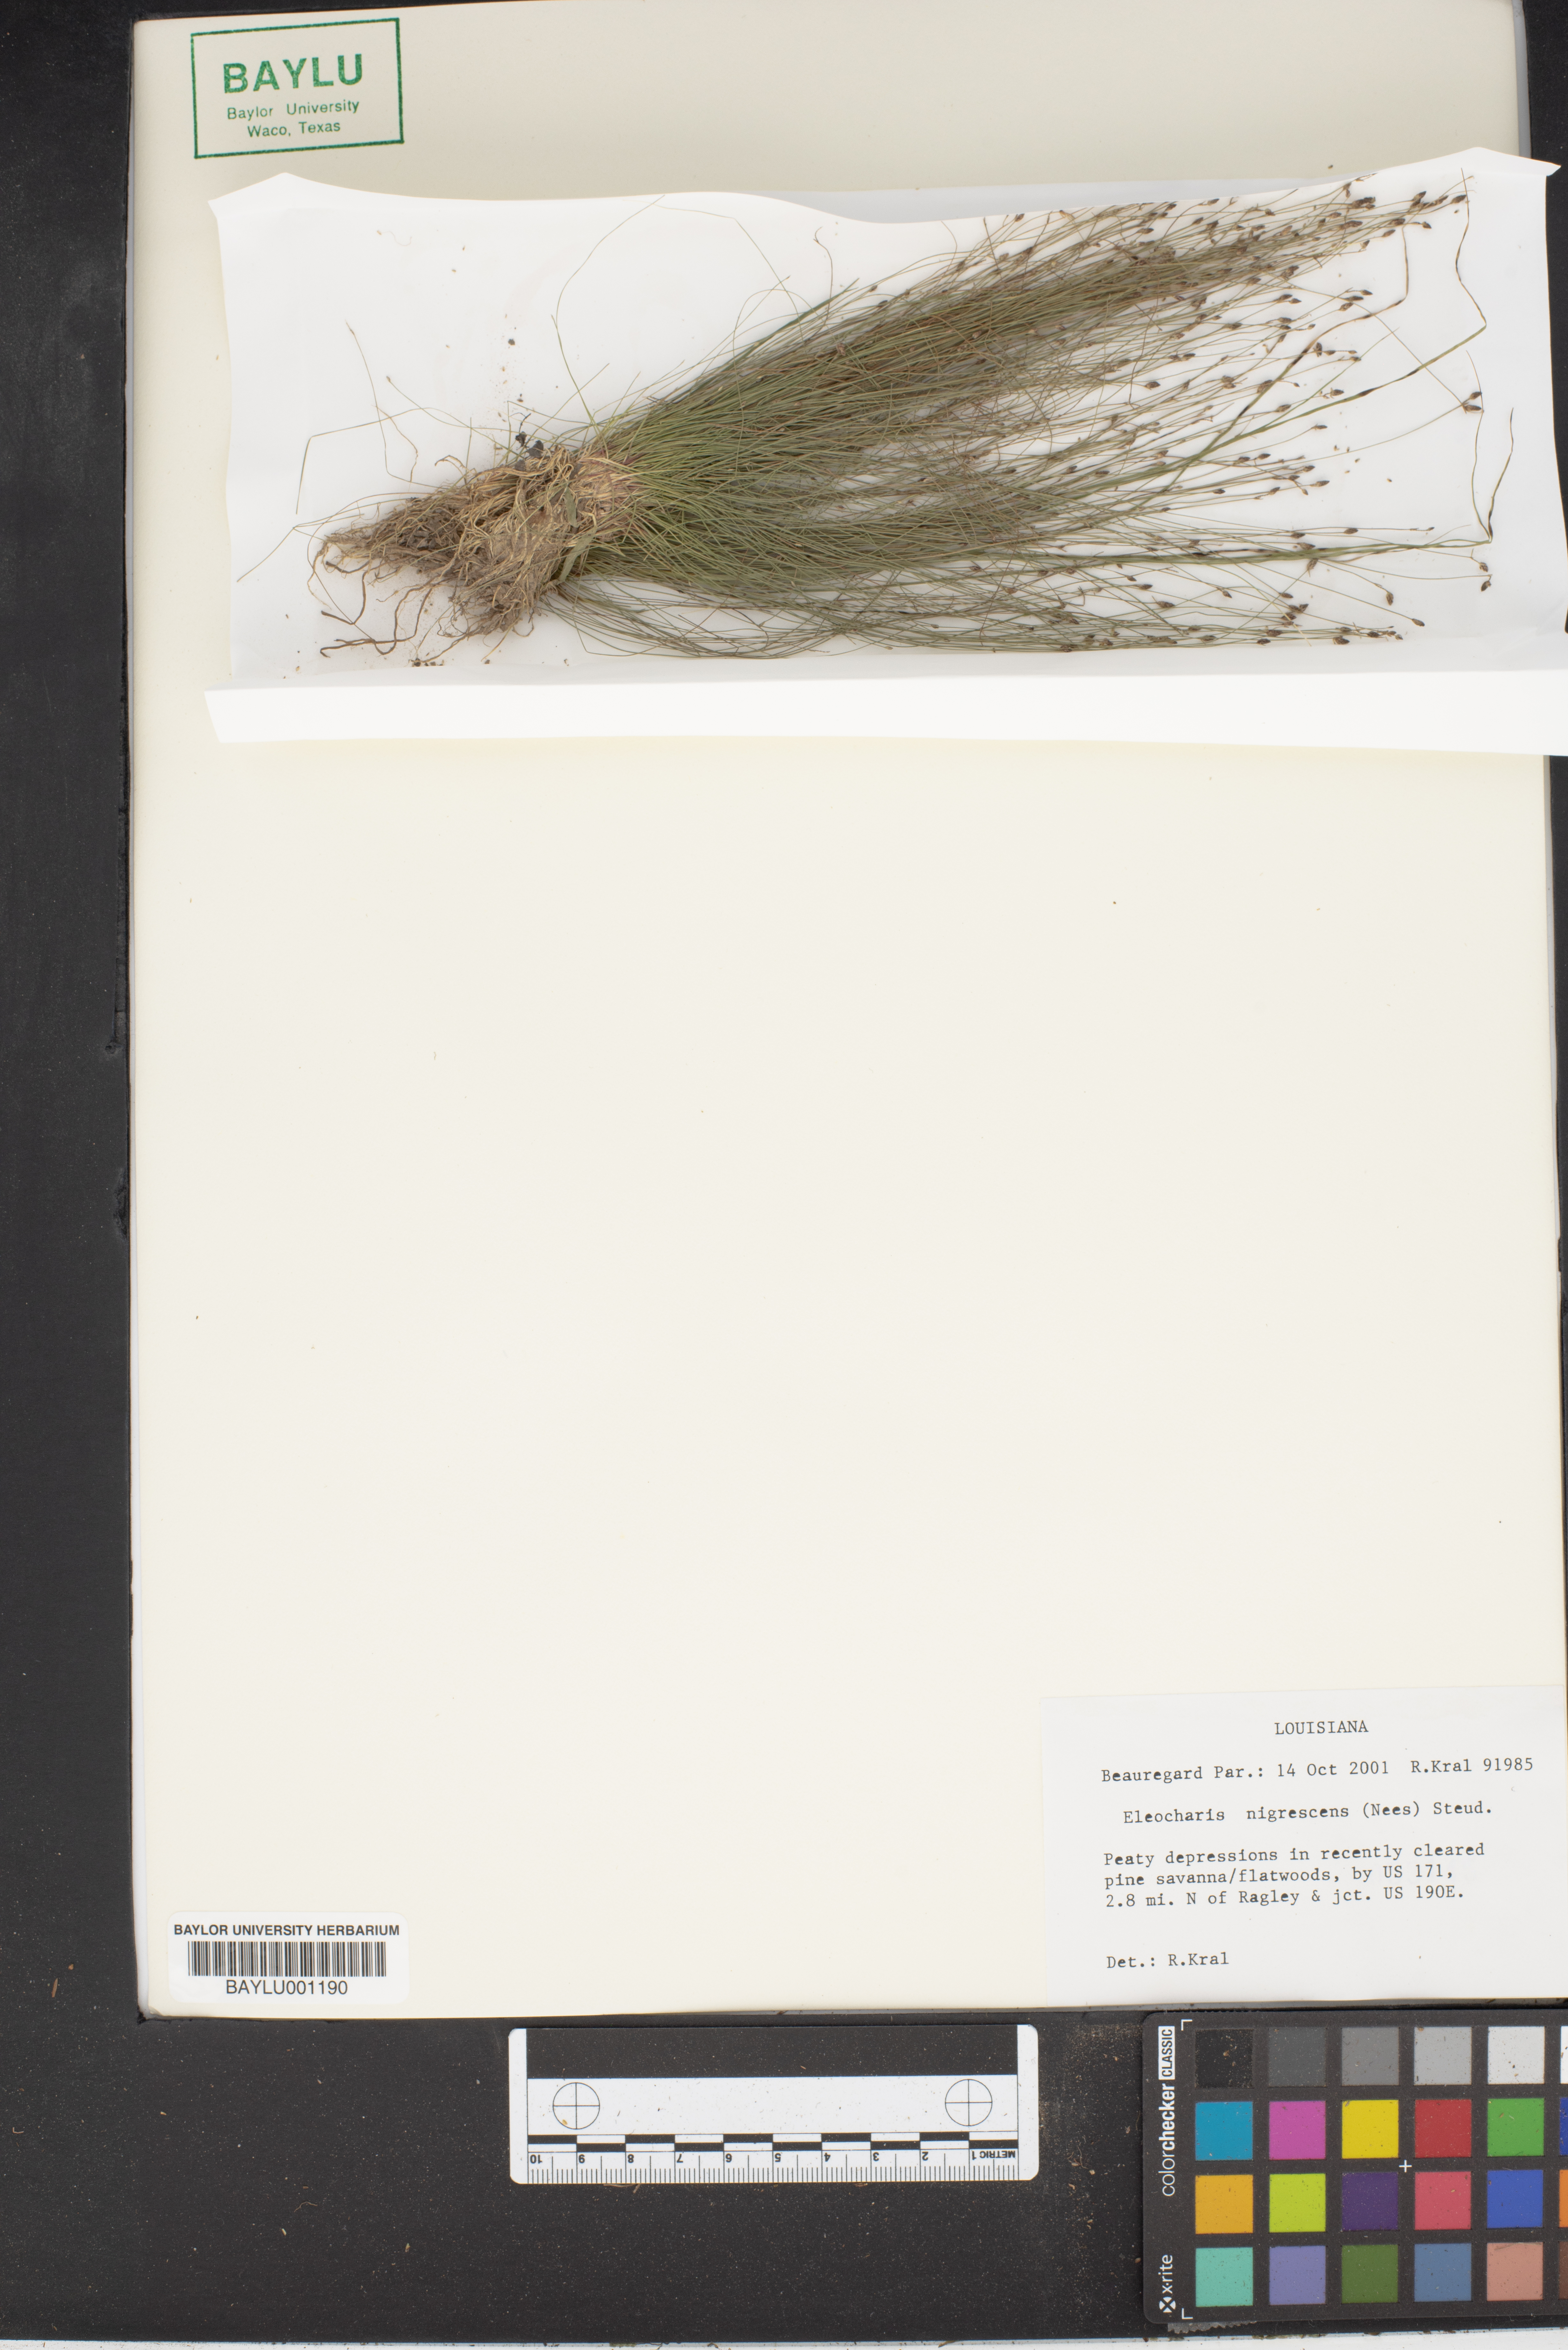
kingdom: Plantae
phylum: Tracheophyta
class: Liliopsida
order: Poales
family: Cyperaceae
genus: Eleocharis
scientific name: Eleocharis nigrescens
